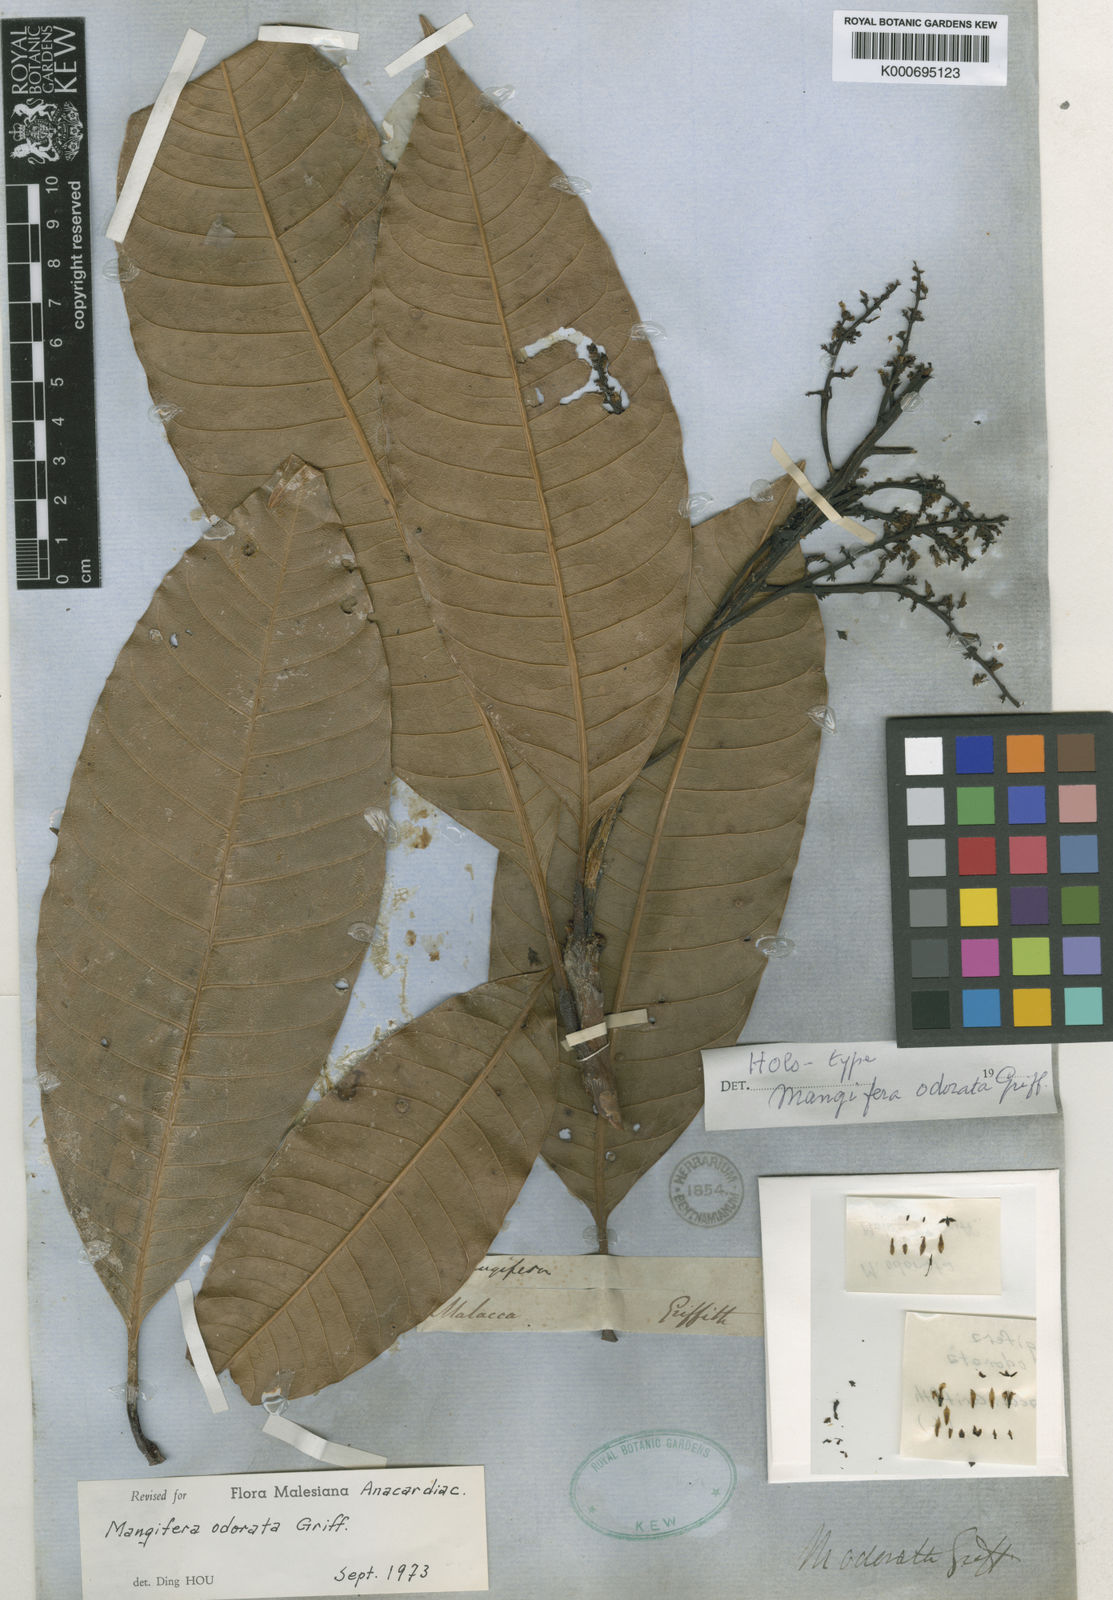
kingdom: Plantae
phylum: Tracheophyta
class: Magnoliopsida
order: Sapindales
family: Anacardiaceae
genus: Mangifera
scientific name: Mangifera odorata
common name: Saipan mango
